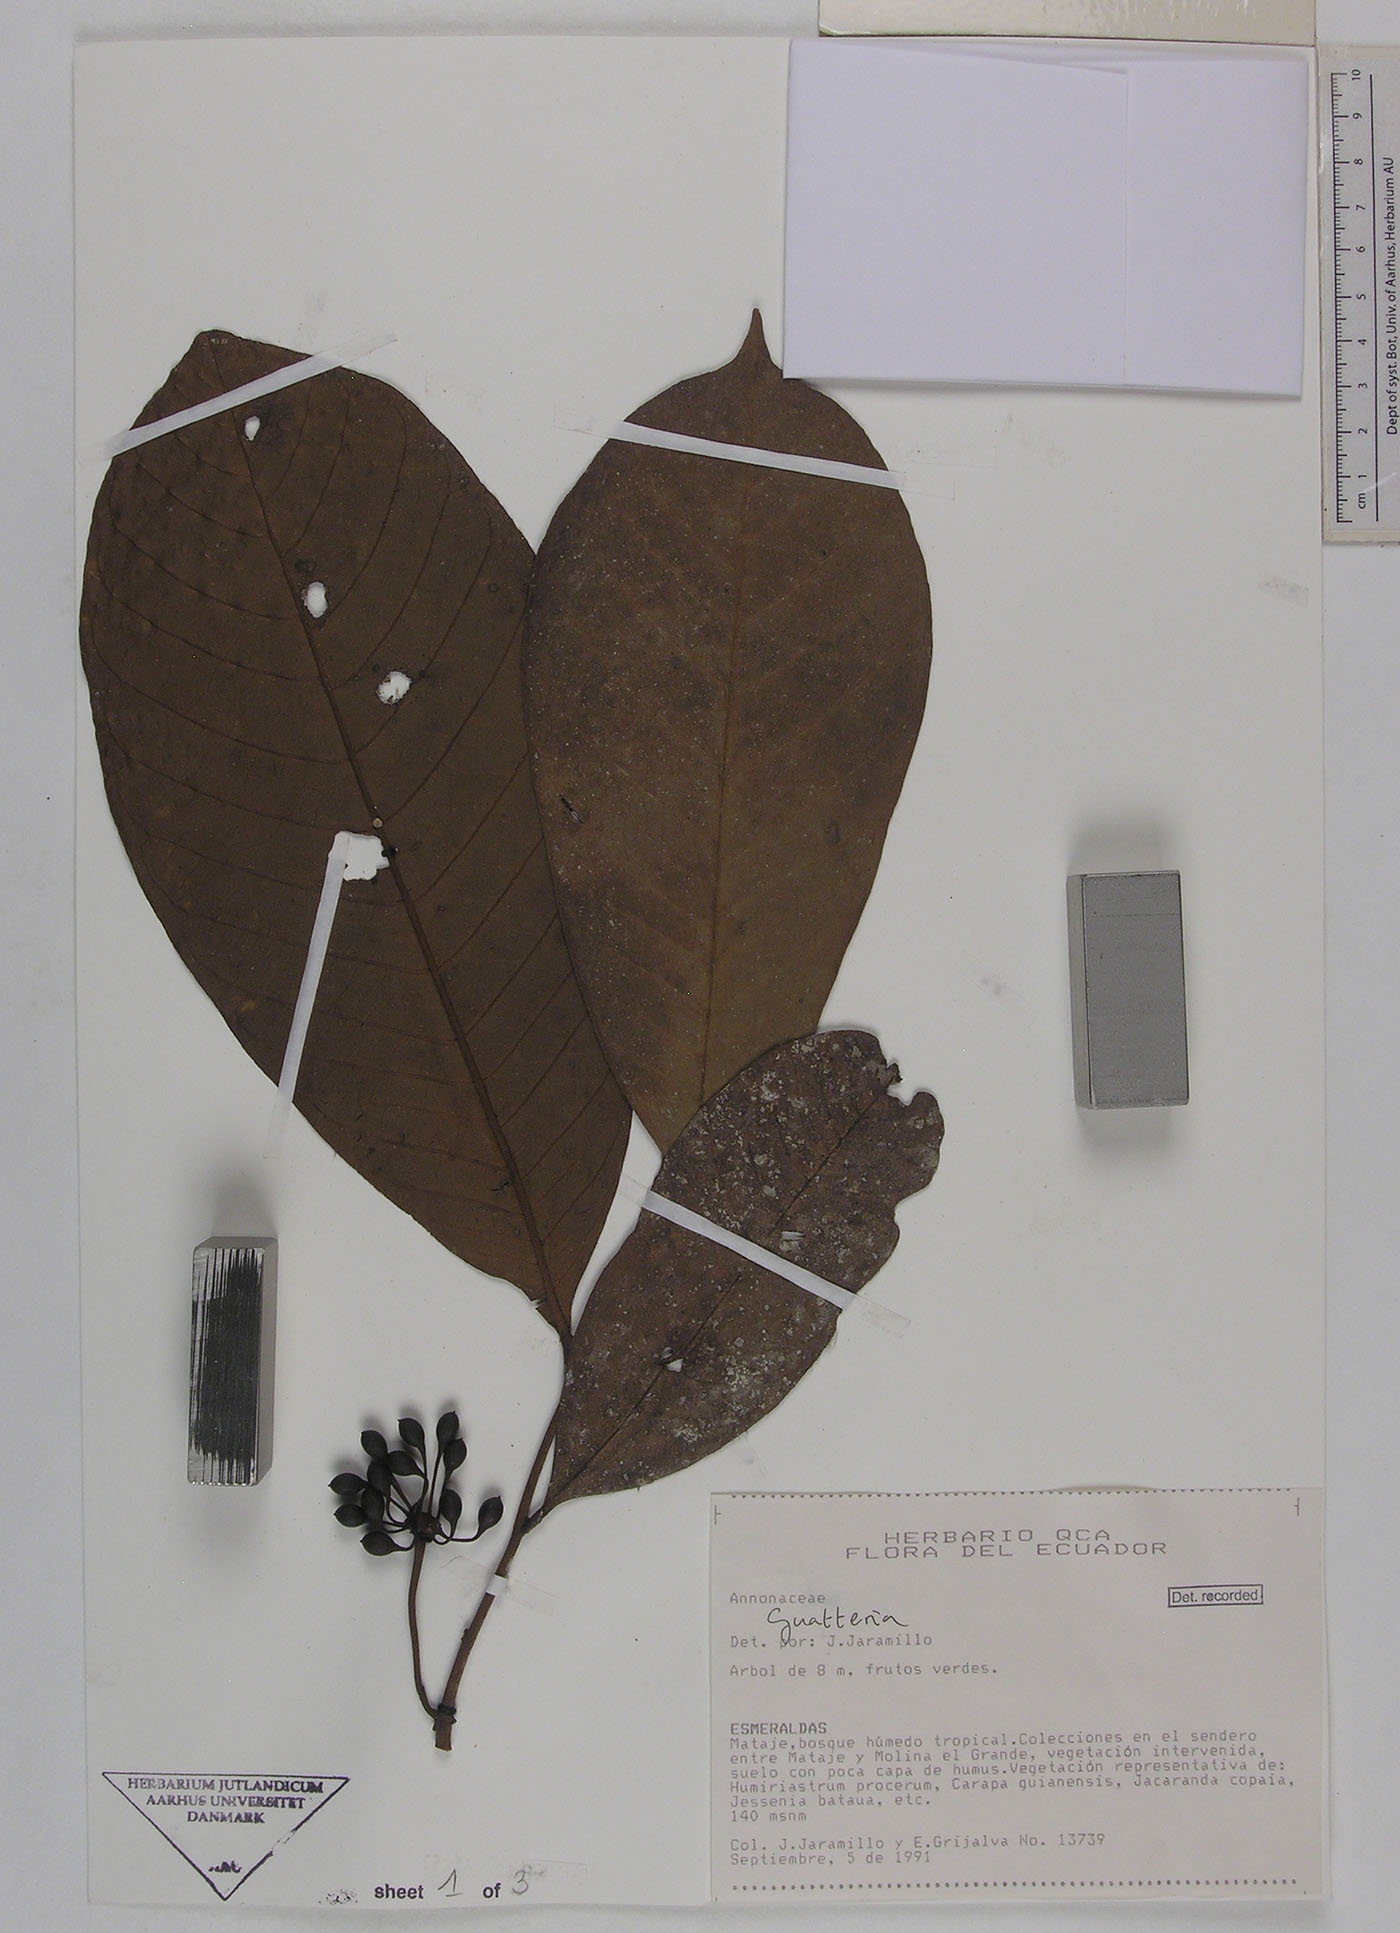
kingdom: Plantae
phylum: Tracheophyta
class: Magnoliopsida
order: Magnoliales
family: Annonaceae
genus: Guatteria
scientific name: Guatteria punctata
